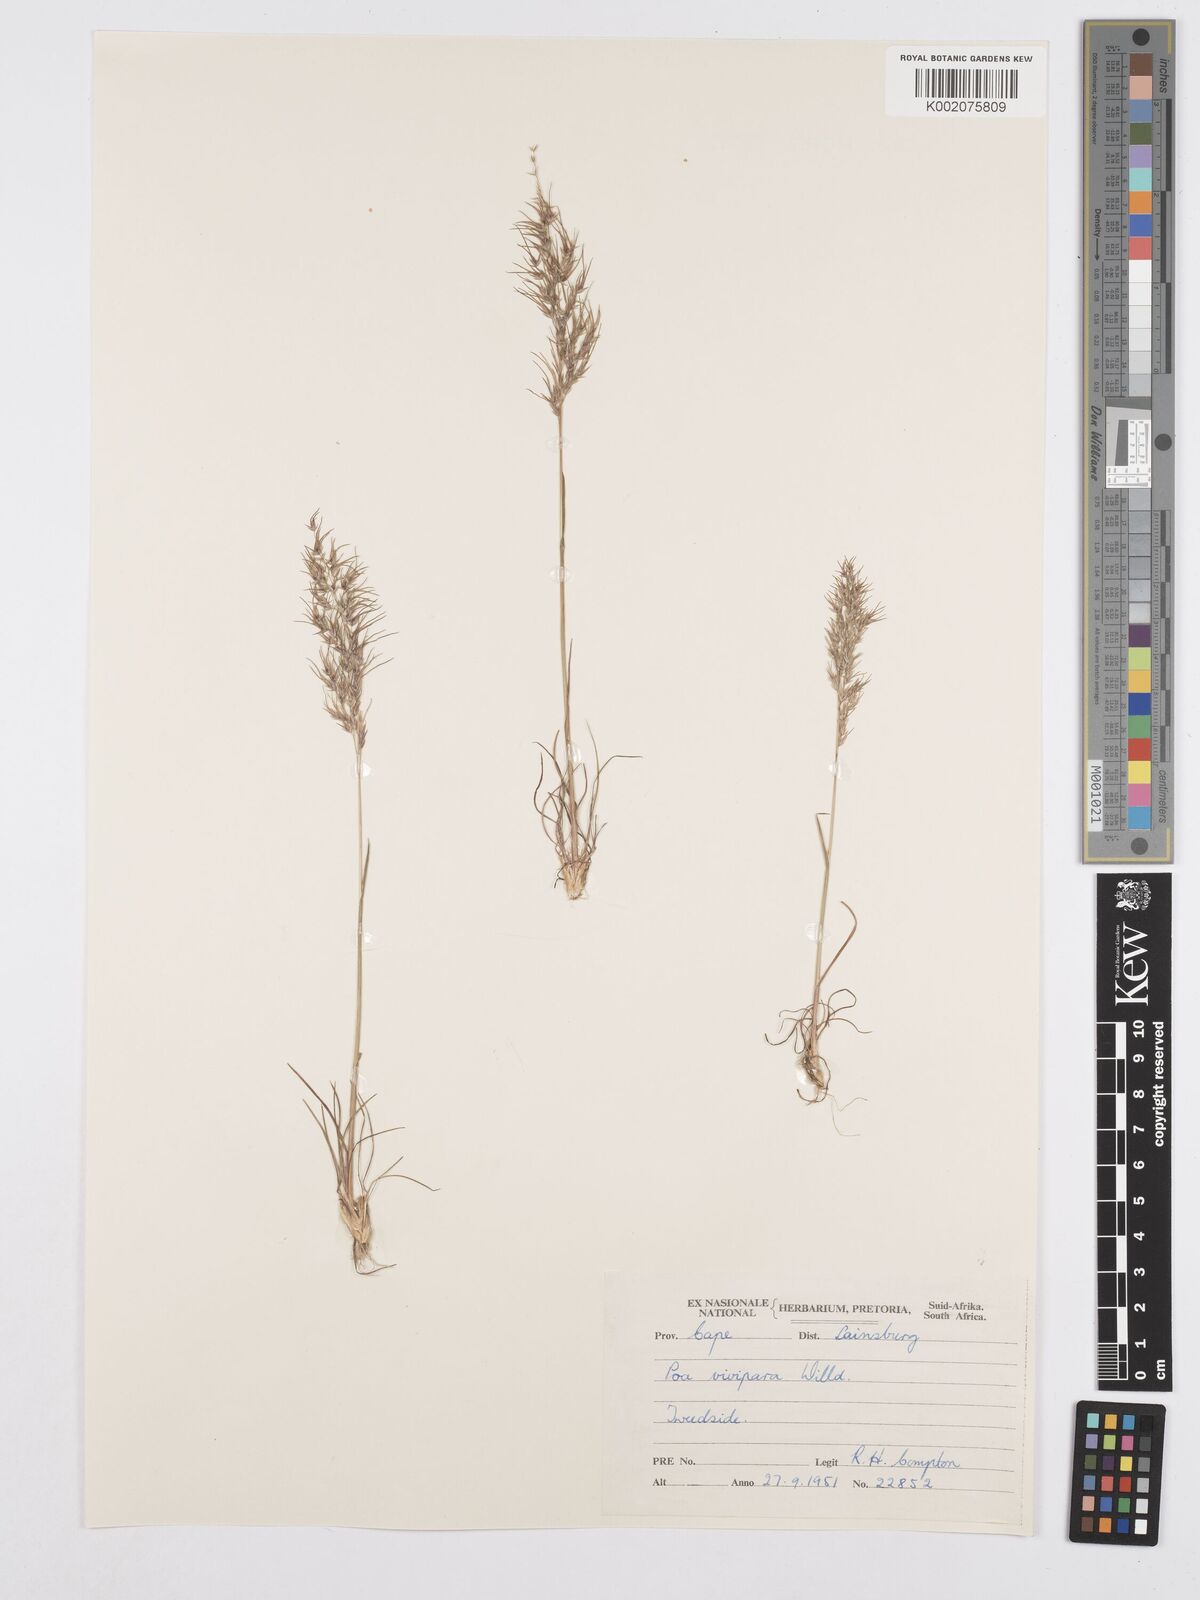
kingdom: Plantae
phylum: Tracheophyta
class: Liliopsida
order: Poales
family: Poaceae
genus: Poa
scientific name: Poa bulbosa
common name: Bulbous bluegrass
